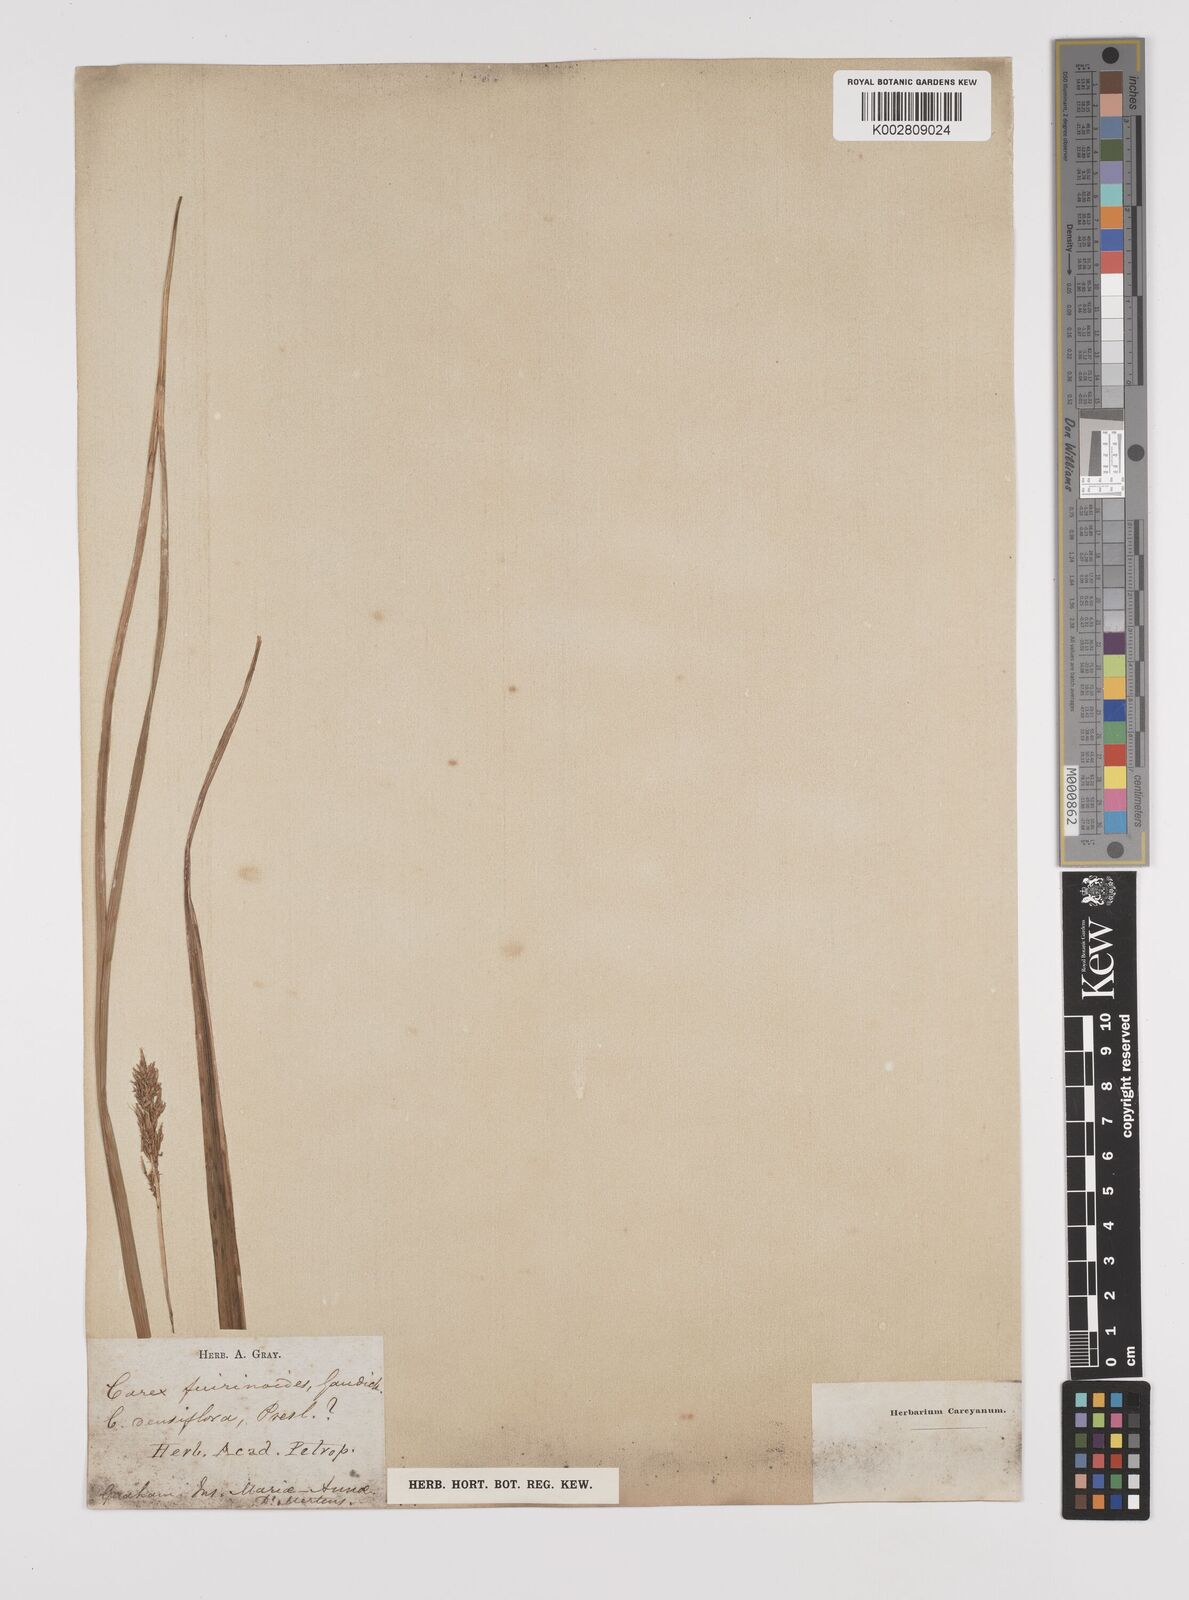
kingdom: Plantae
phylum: Tracheophyta
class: Liliopsida
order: Poales
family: Cyperaceae
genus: Carex
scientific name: Carex indica
